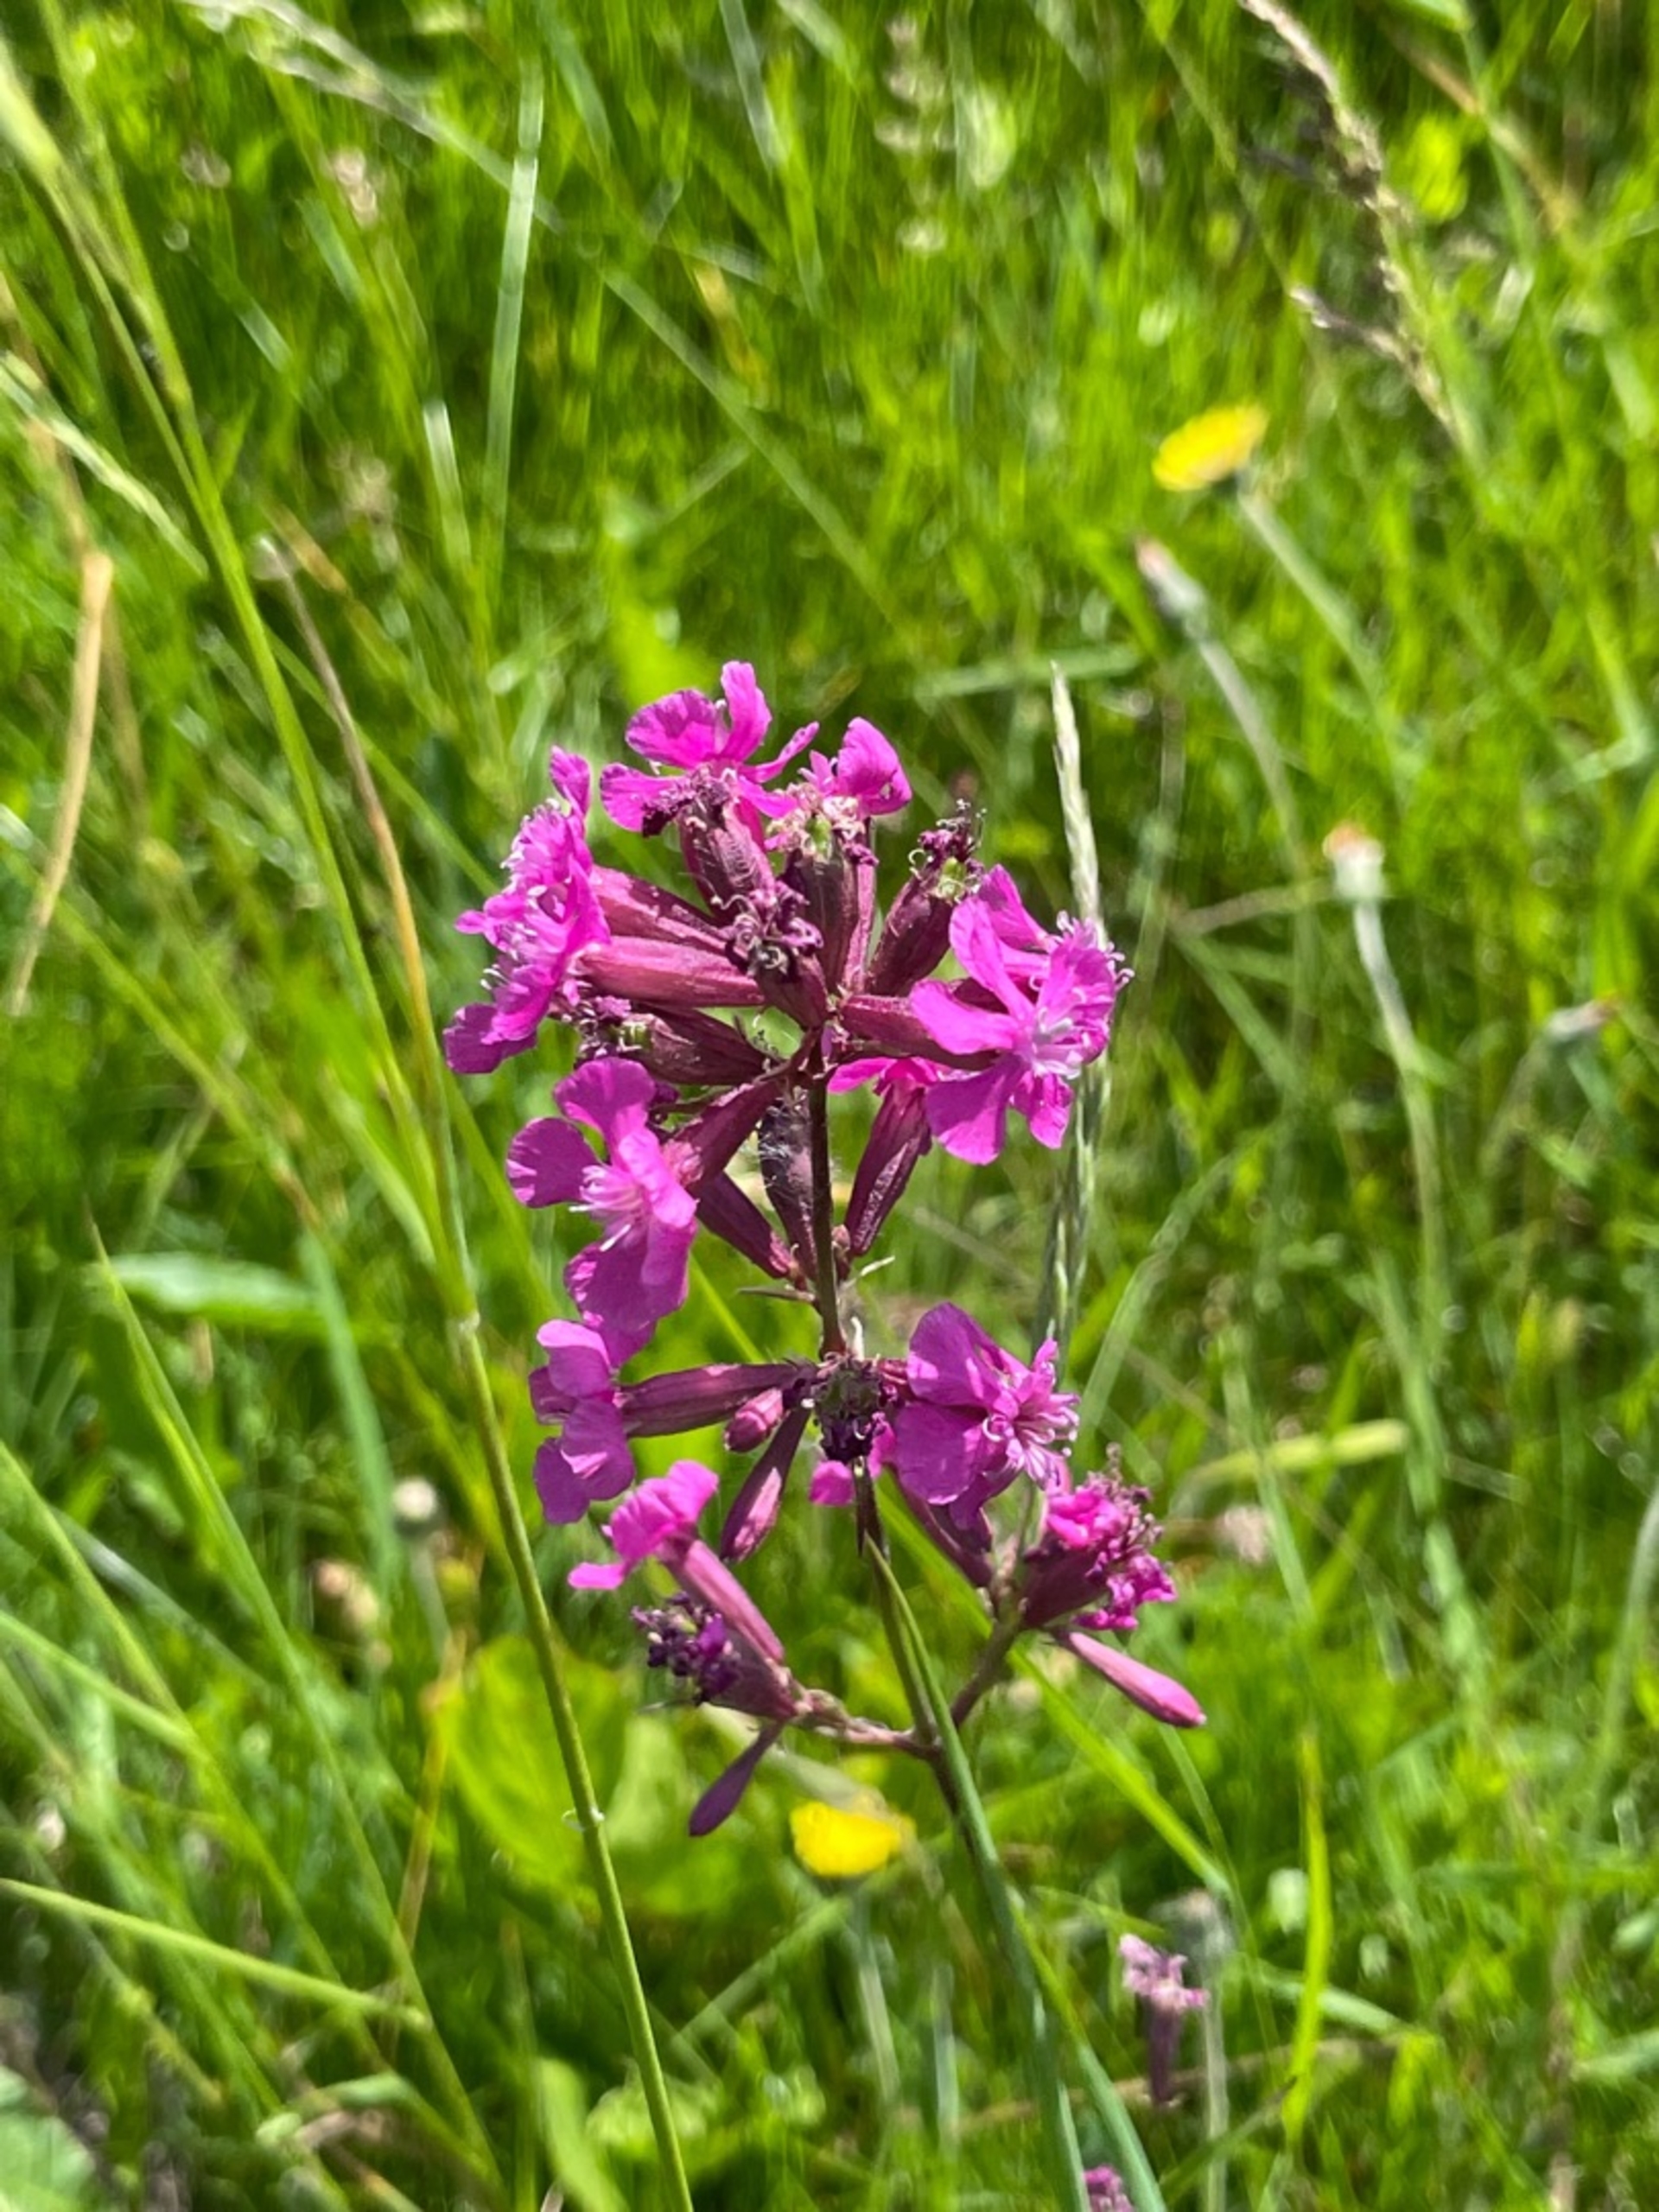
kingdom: Plantae
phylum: Tracheophyta
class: Magnoliopsida
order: Caryophyllales
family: Caryophyllaceae
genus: Viscaria
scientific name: Viscaria vulgaris
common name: Tjærenellike
